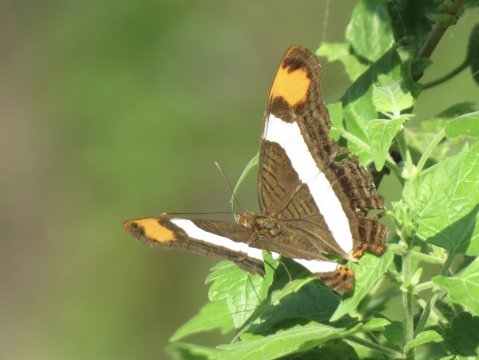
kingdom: Animalia
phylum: Arthropoda
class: Insecta
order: Lepidoptera
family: Nymphalidae
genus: Limenitis
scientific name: Limenitis fessonia
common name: Band-celled Sister
